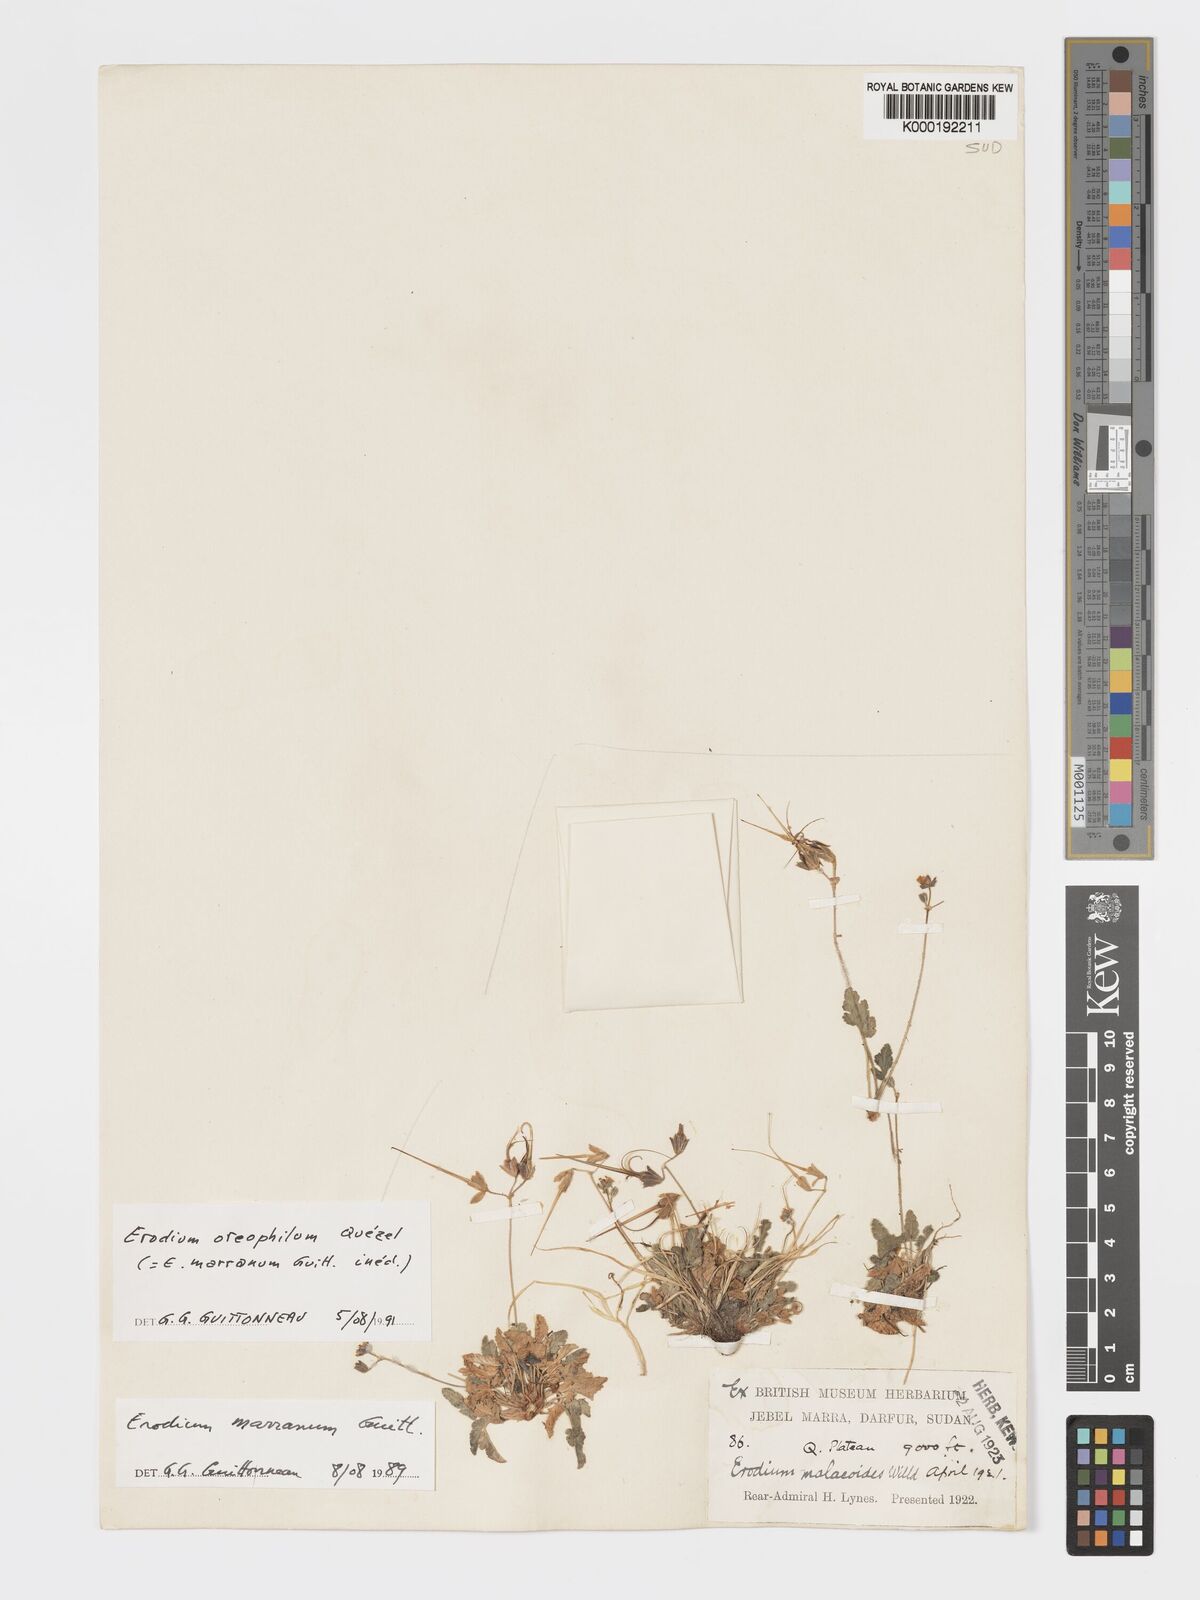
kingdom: Plantae
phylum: Tracheophyta
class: Magnoliopsida
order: Geraniales
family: Geraniaceae
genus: Erodium
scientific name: Erodium oreophilum
